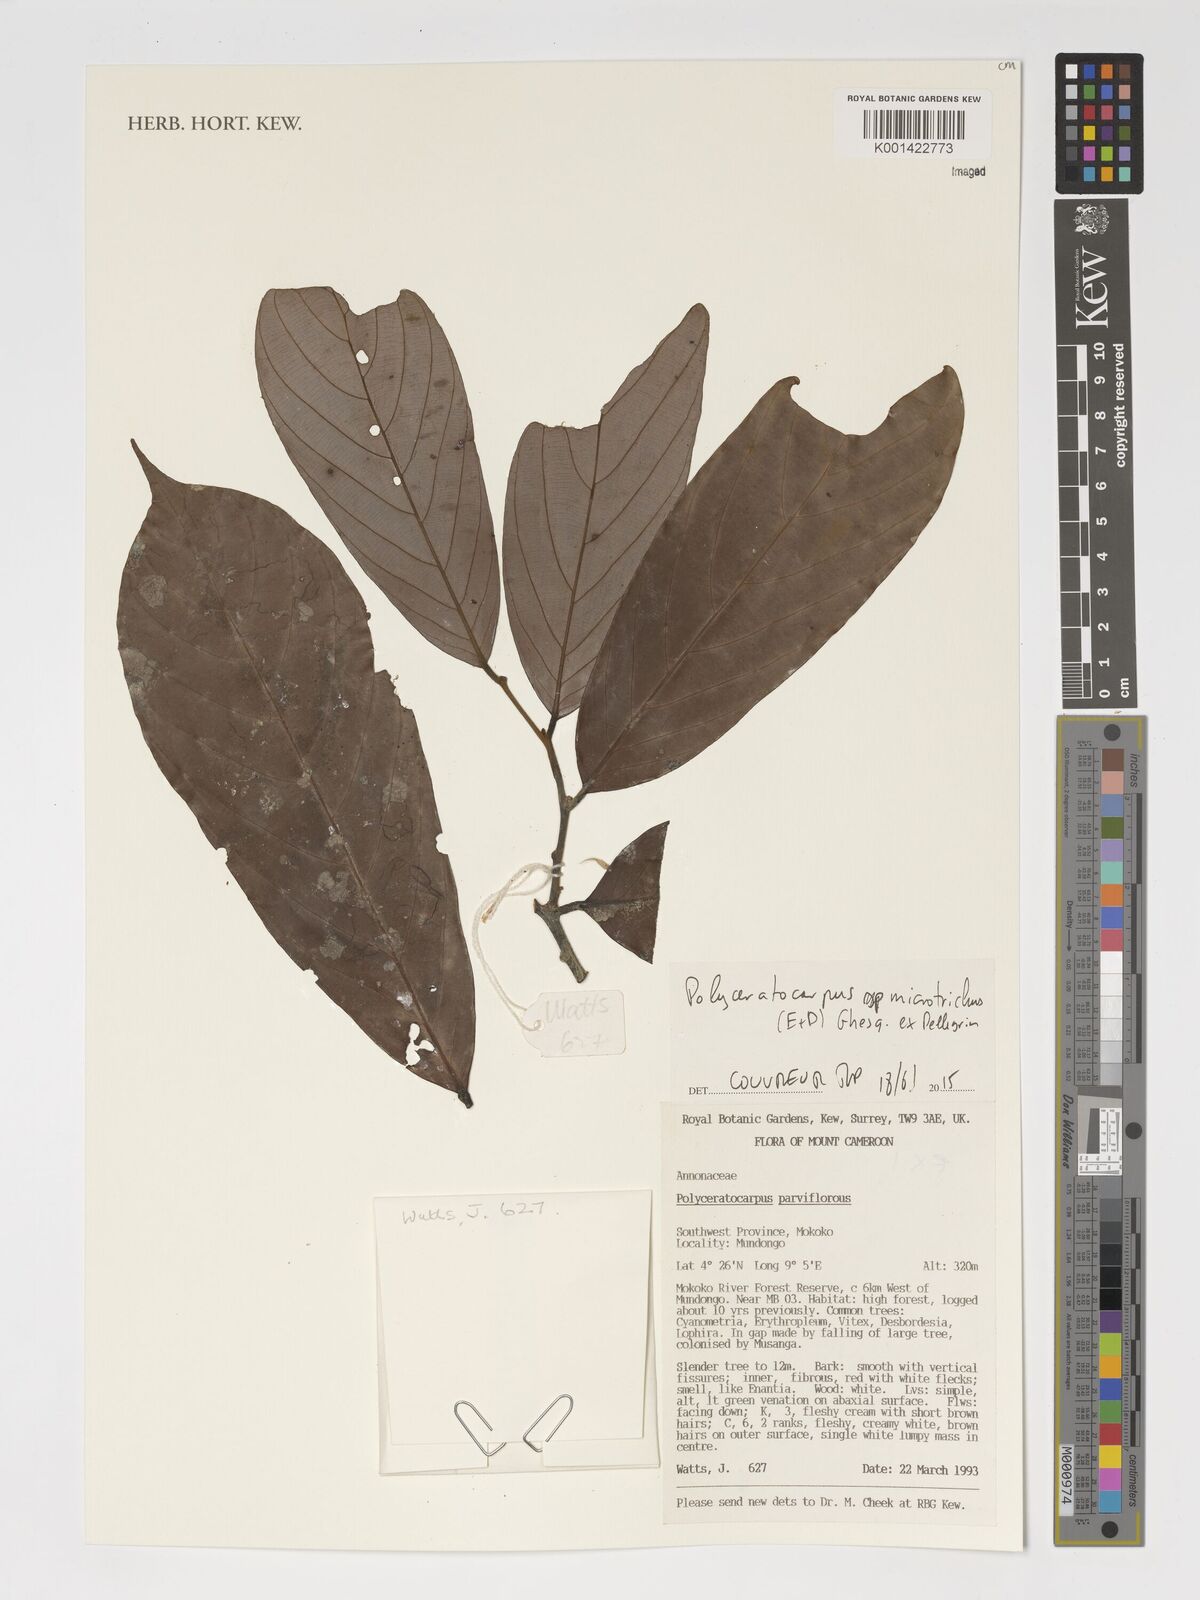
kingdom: Plantae
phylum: Tracheophyta
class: Magnoliopsida
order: Magnoliales
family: Annonaceae
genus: Polyceratocarpus
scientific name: Polyceratocarpus microtrichus
